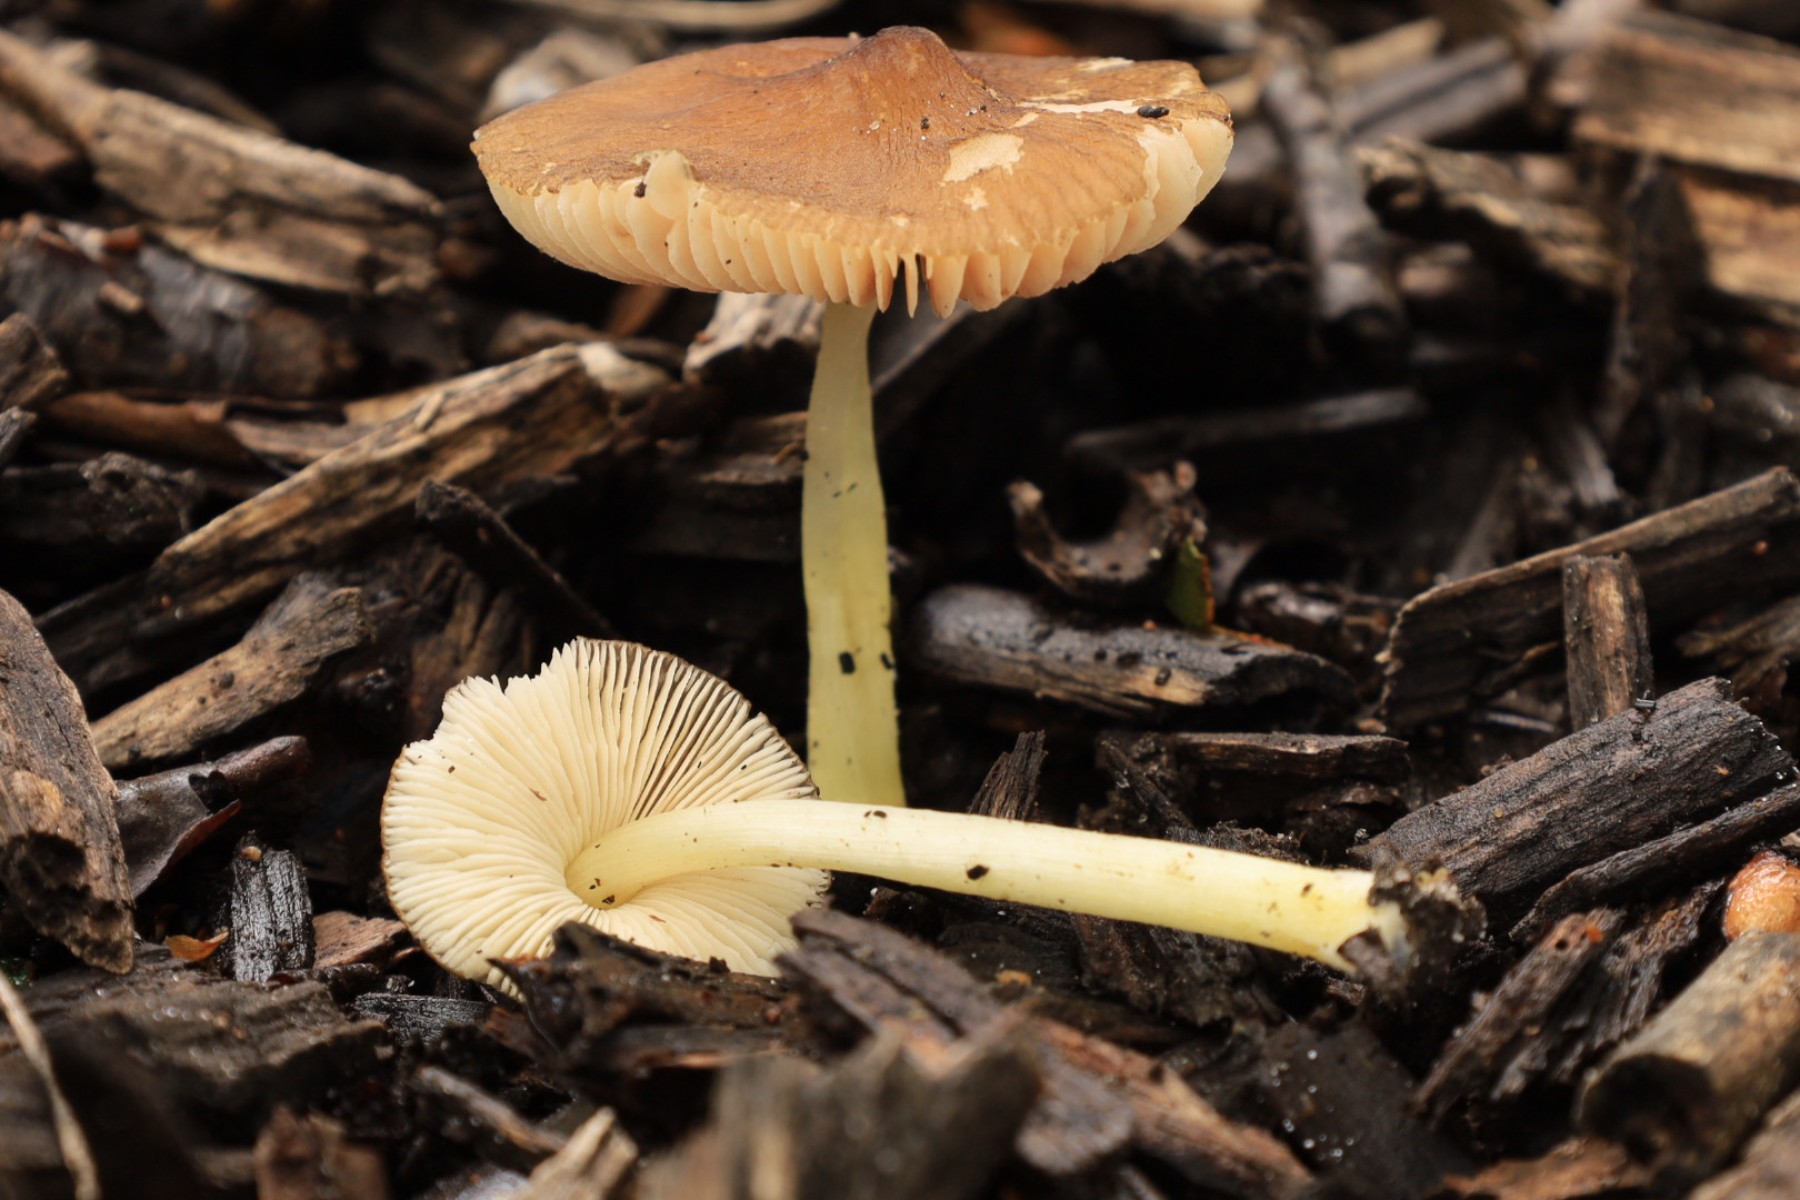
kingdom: Fungi
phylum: Basidiomycota
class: Agaricomycetes
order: Agaricales
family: Pluteaceae
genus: Pluteus
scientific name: Pluteus romellii
